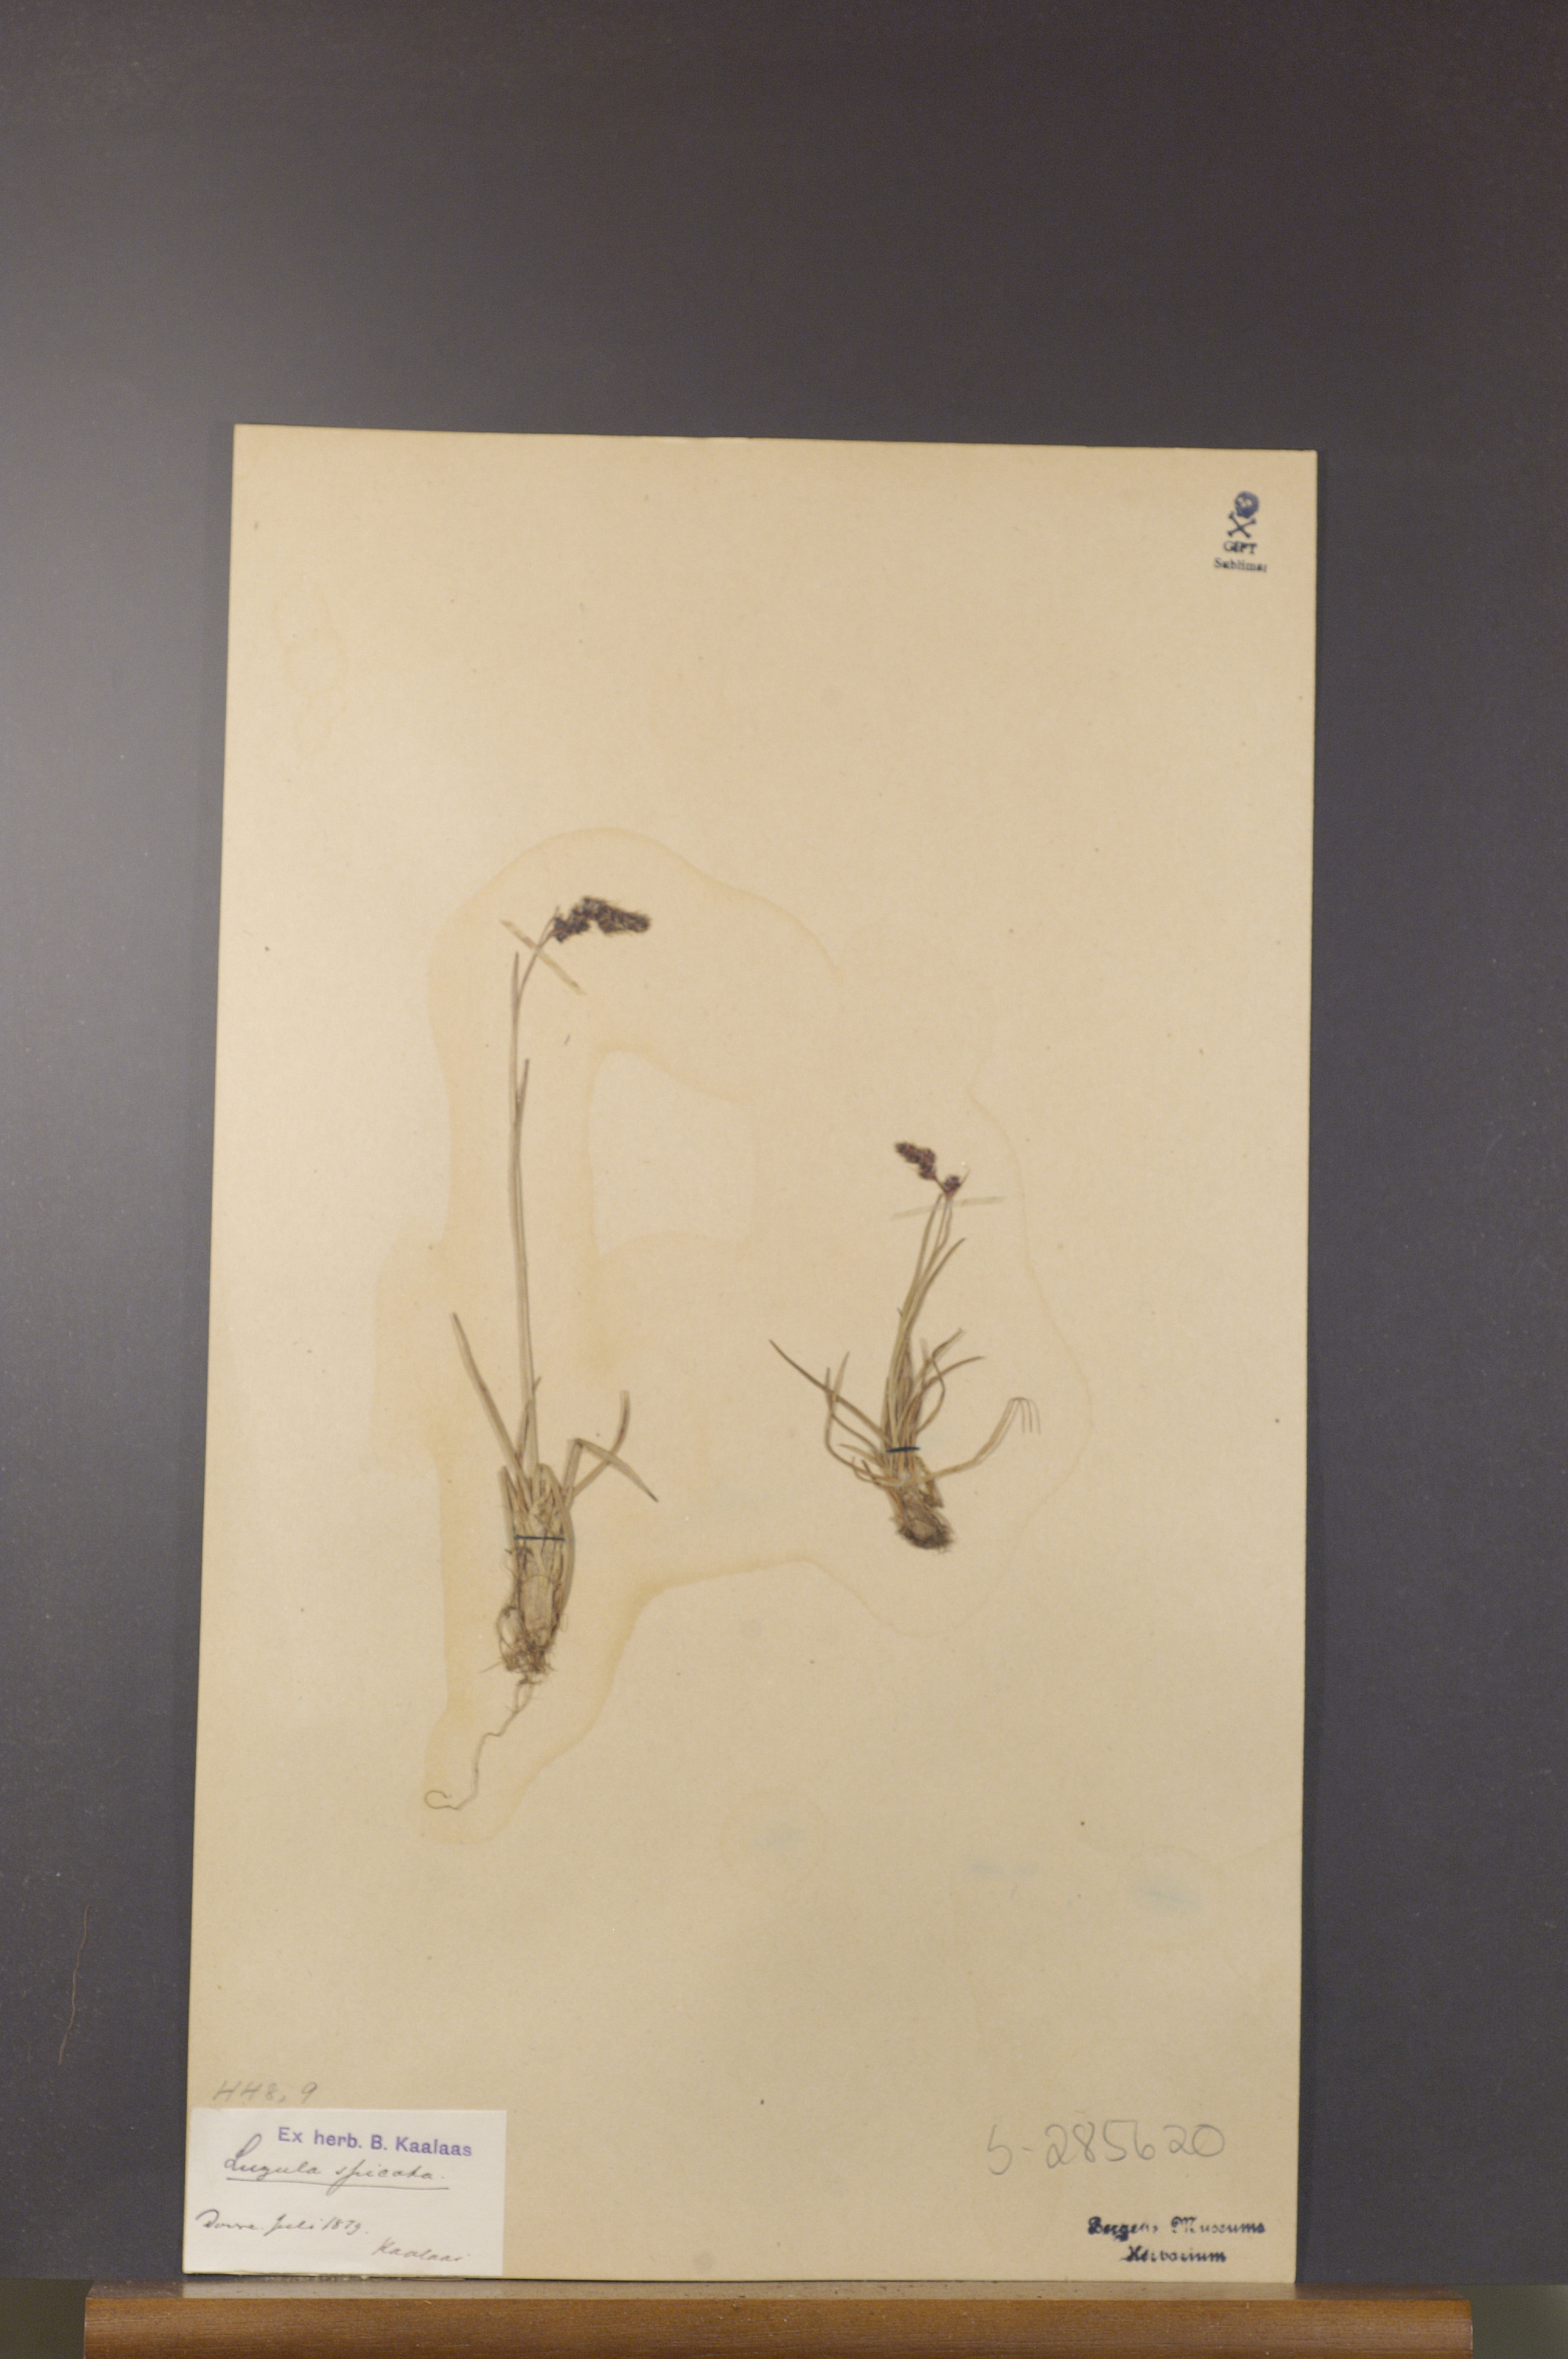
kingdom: Plantae
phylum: Tracheophyta
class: Liliopsida
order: Poales
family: Juncaceae
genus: Luzula
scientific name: Luzula spicata
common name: Spiked wood-rush
